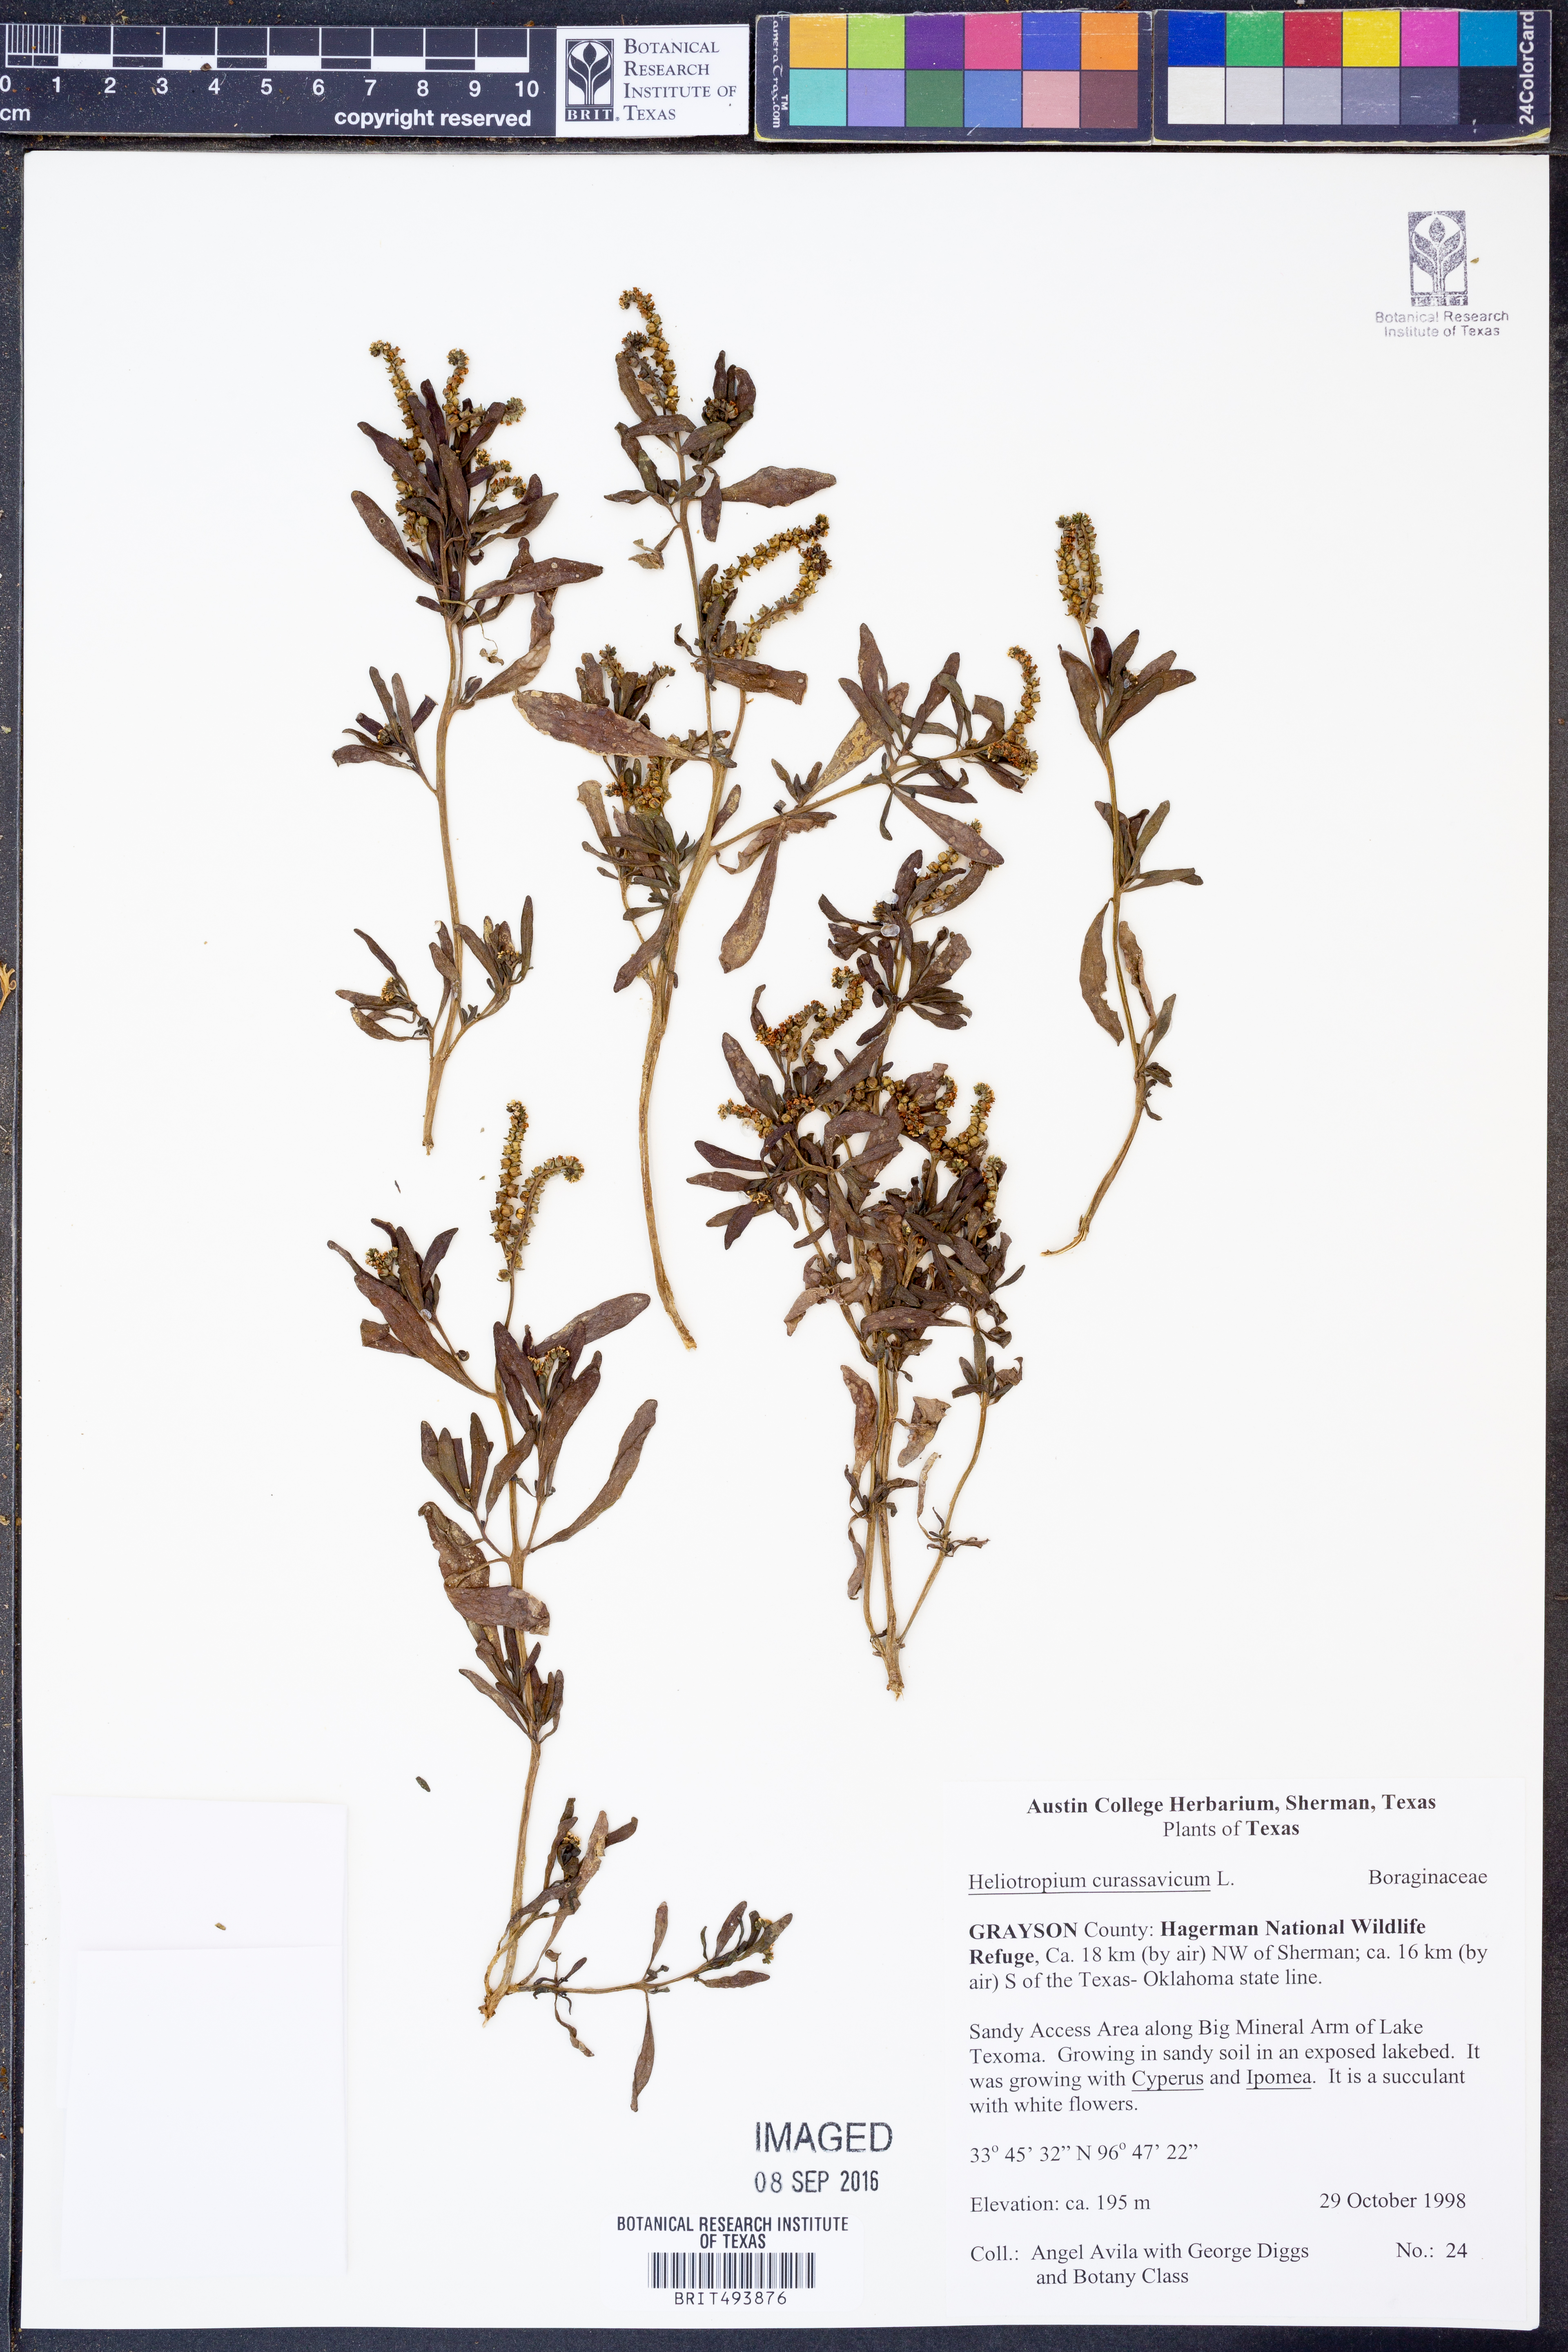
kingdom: Plantae
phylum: Tracheophyta
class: Magnoliopsida
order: Boraginales
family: Heliotropiaceae
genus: Heliotropium
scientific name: Heliotropium curassavicum
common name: Seaside heliotrope
